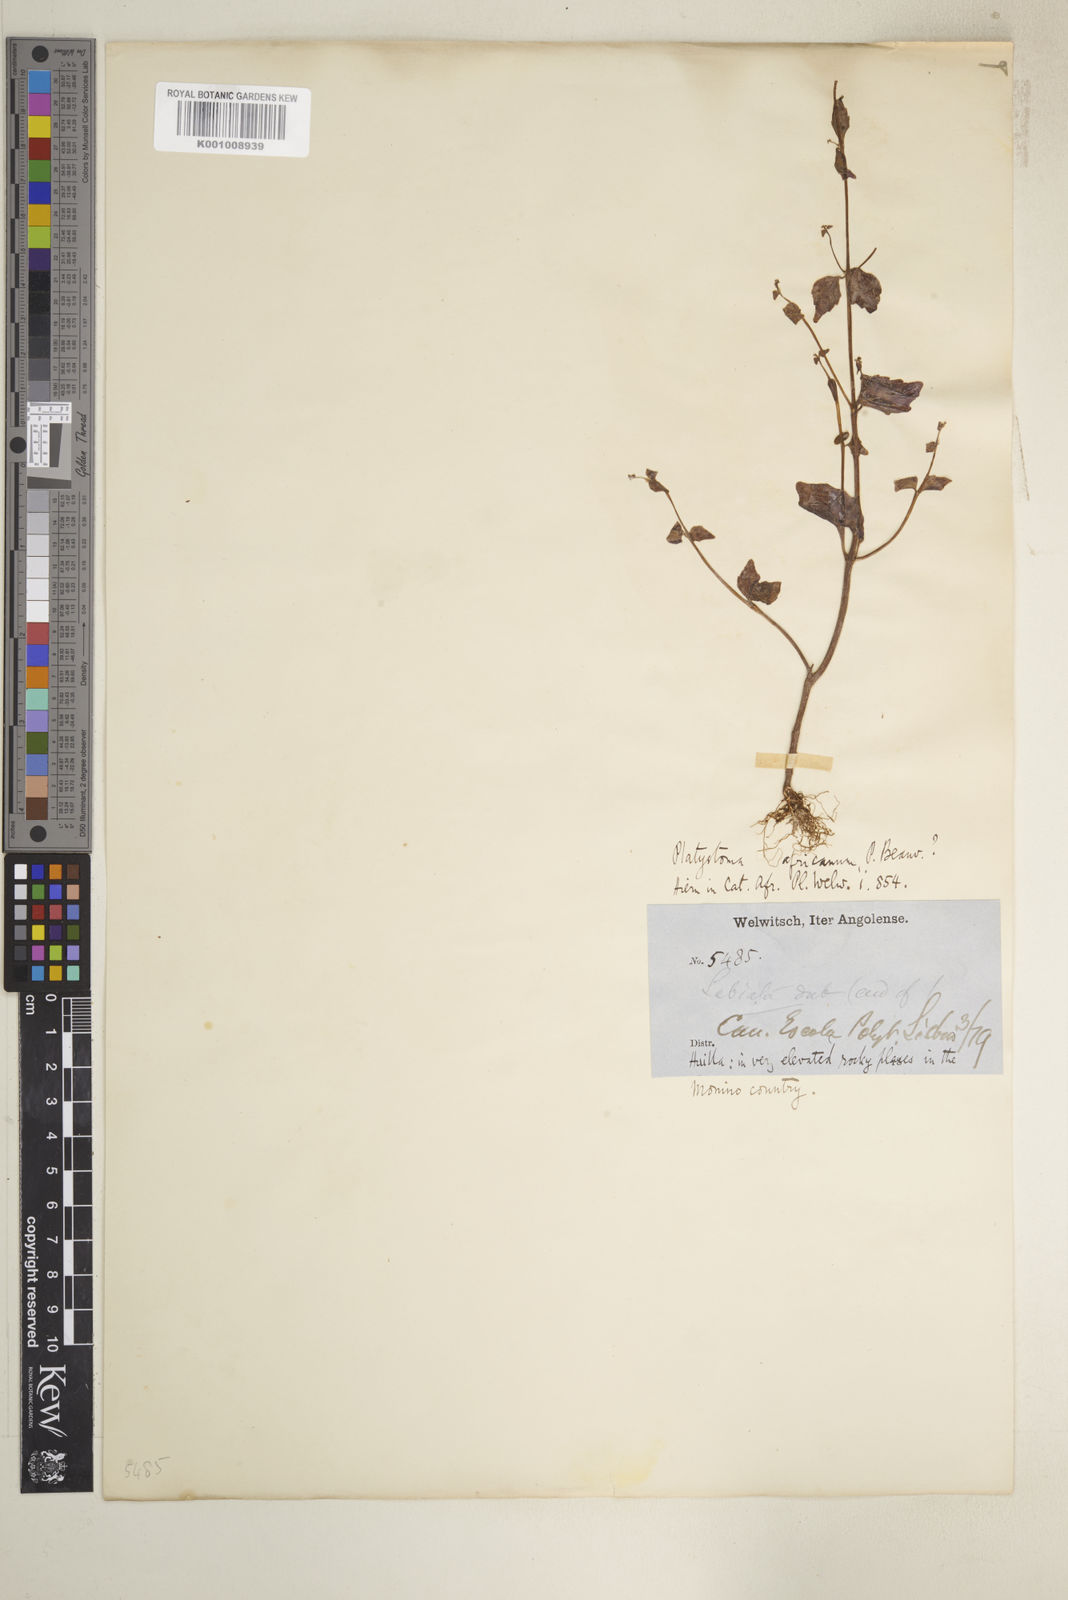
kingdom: Plantae
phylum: Tracheophyta
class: Magnoliopsida
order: Lamiales
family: Lamiaceae
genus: Platostoma
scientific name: Platostoma africanum
